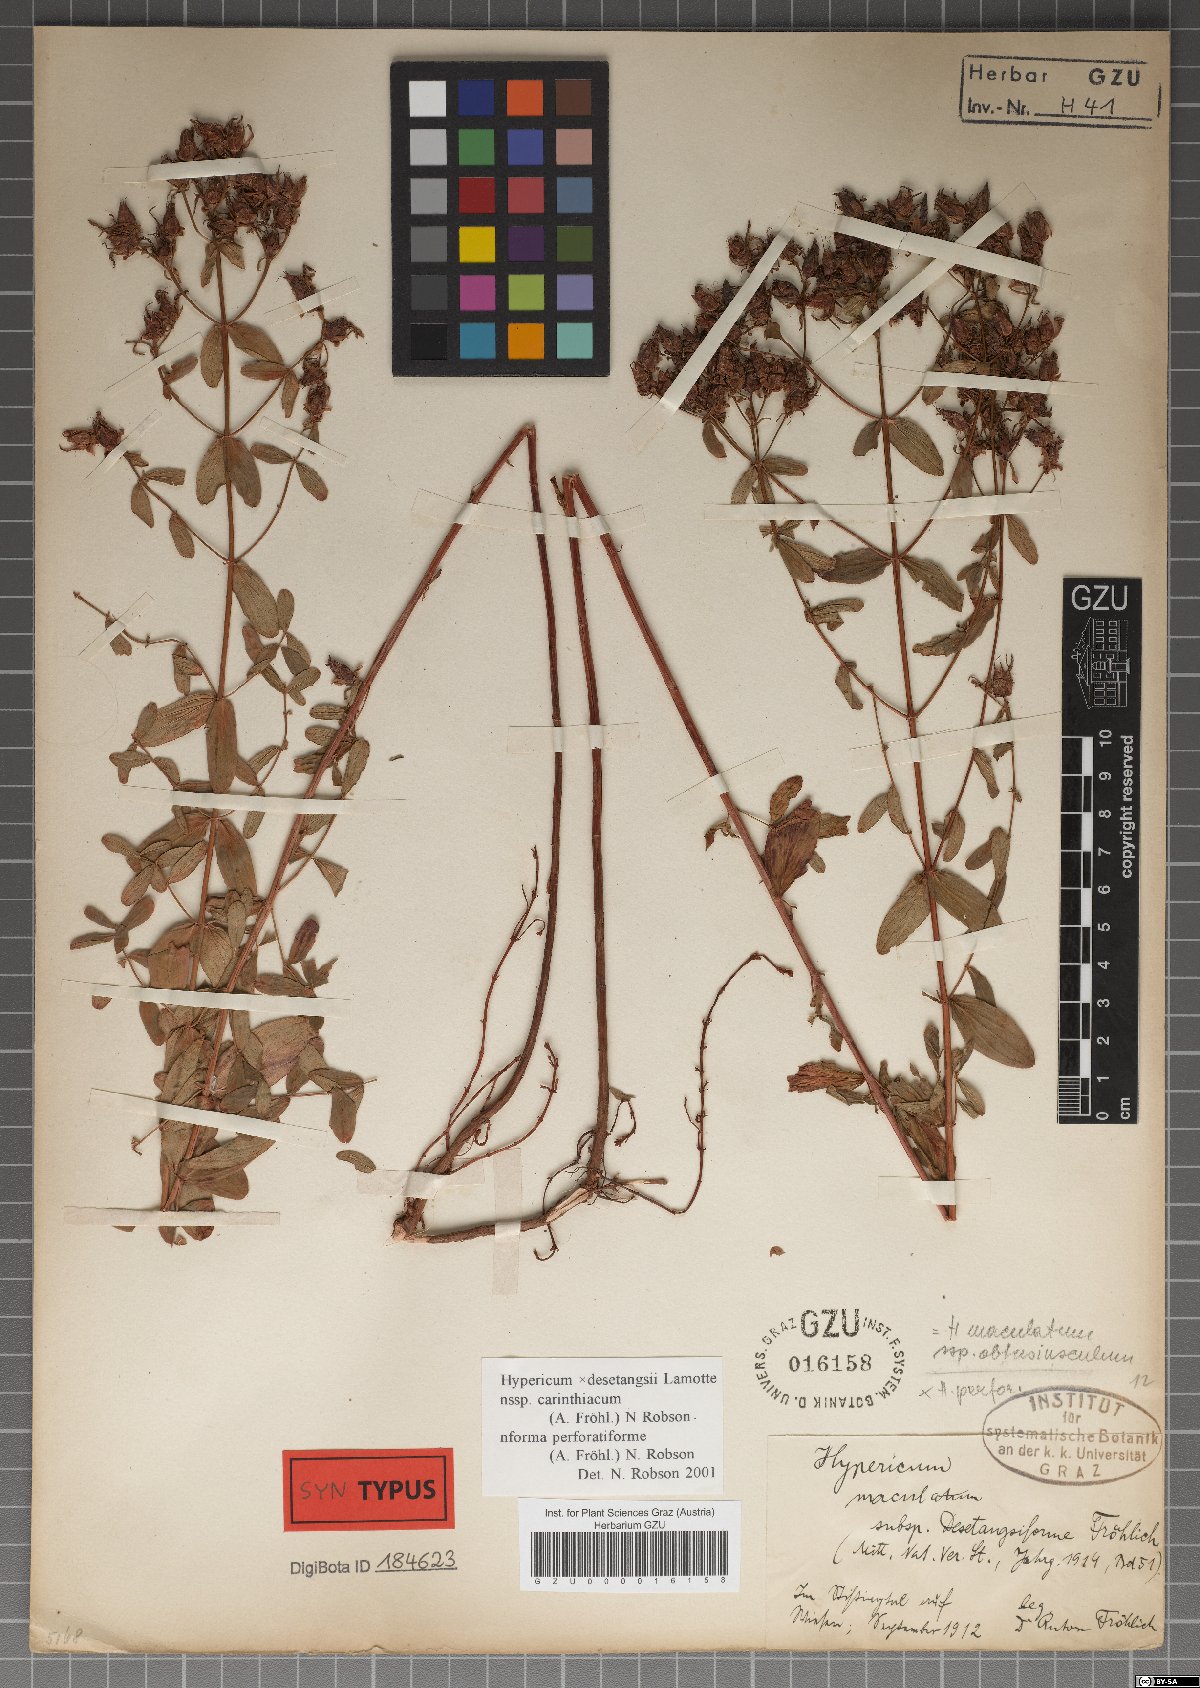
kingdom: Plantae
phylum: Tracheophyta
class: Magnoliopsida
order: Malpighiales
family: Hypericaceae
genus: Hypericum
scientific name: Hypericum carinthiacum
